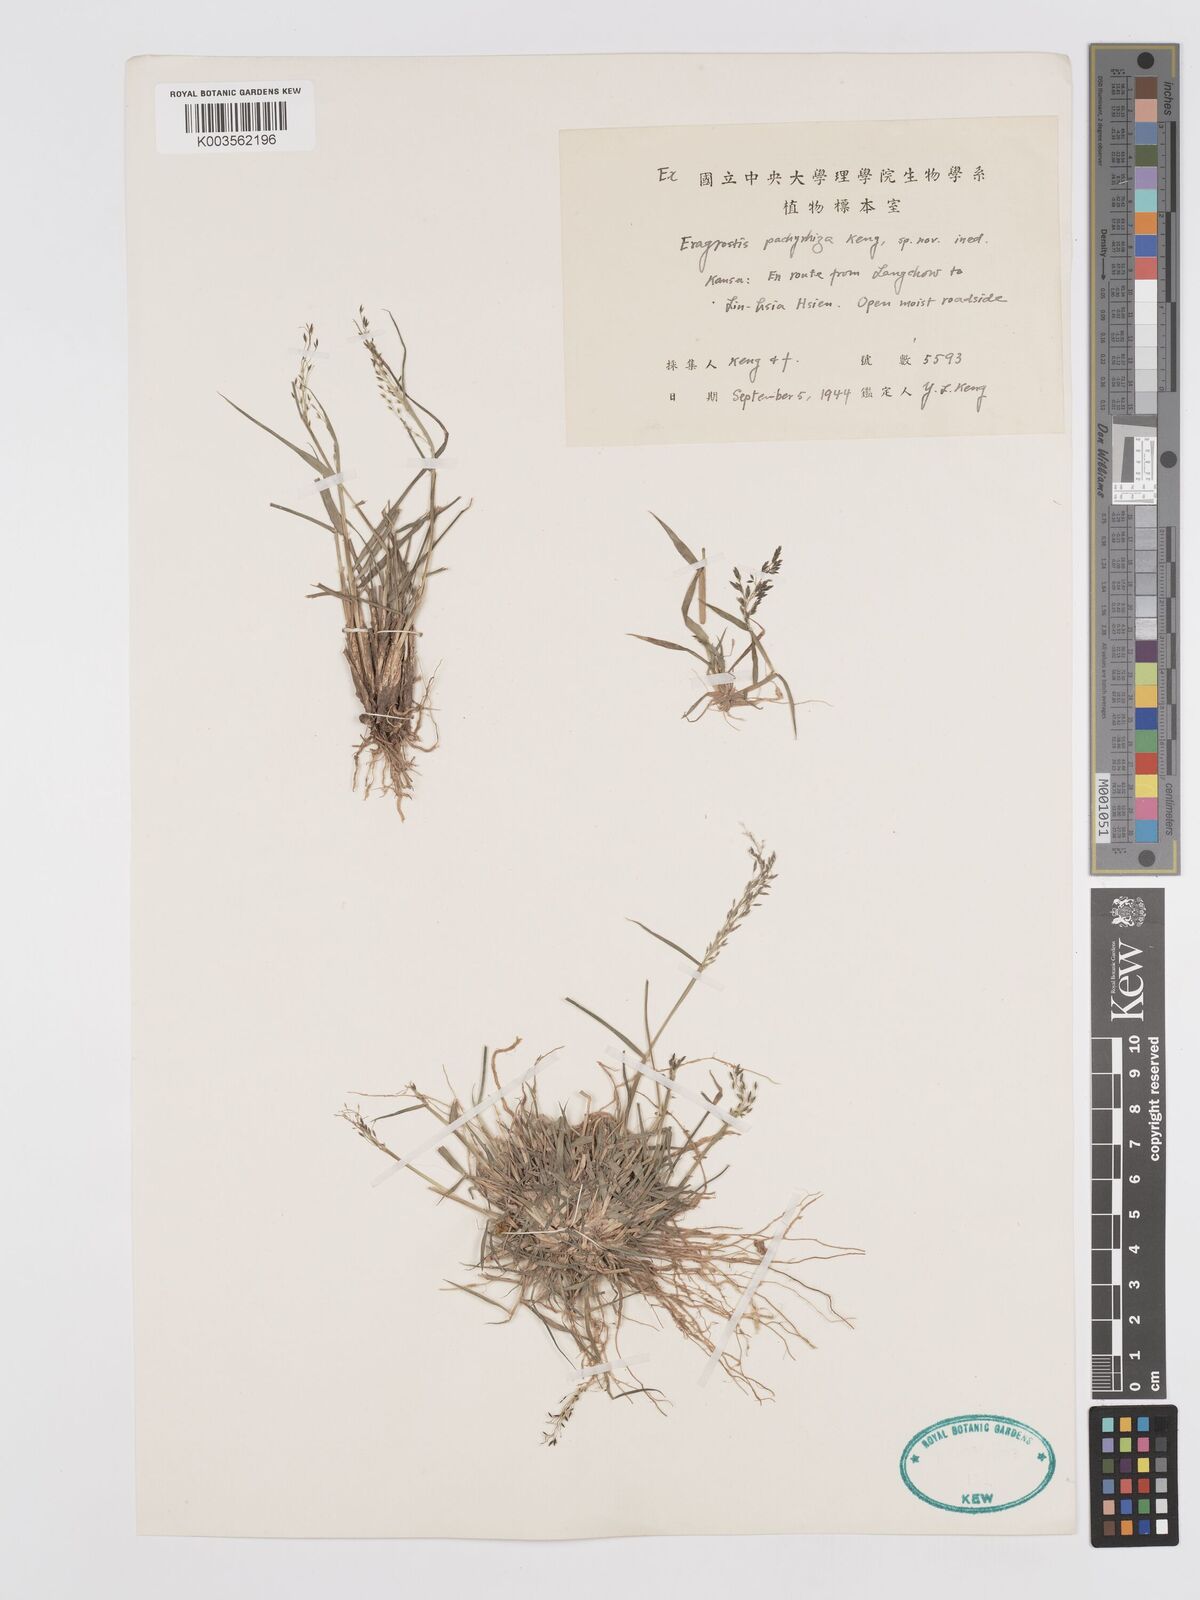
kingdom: Plantae
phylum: Tracheophyta
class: Liliopsida
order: Poales
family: Poaceae
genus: Eragrostis
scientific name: Eragrostis
